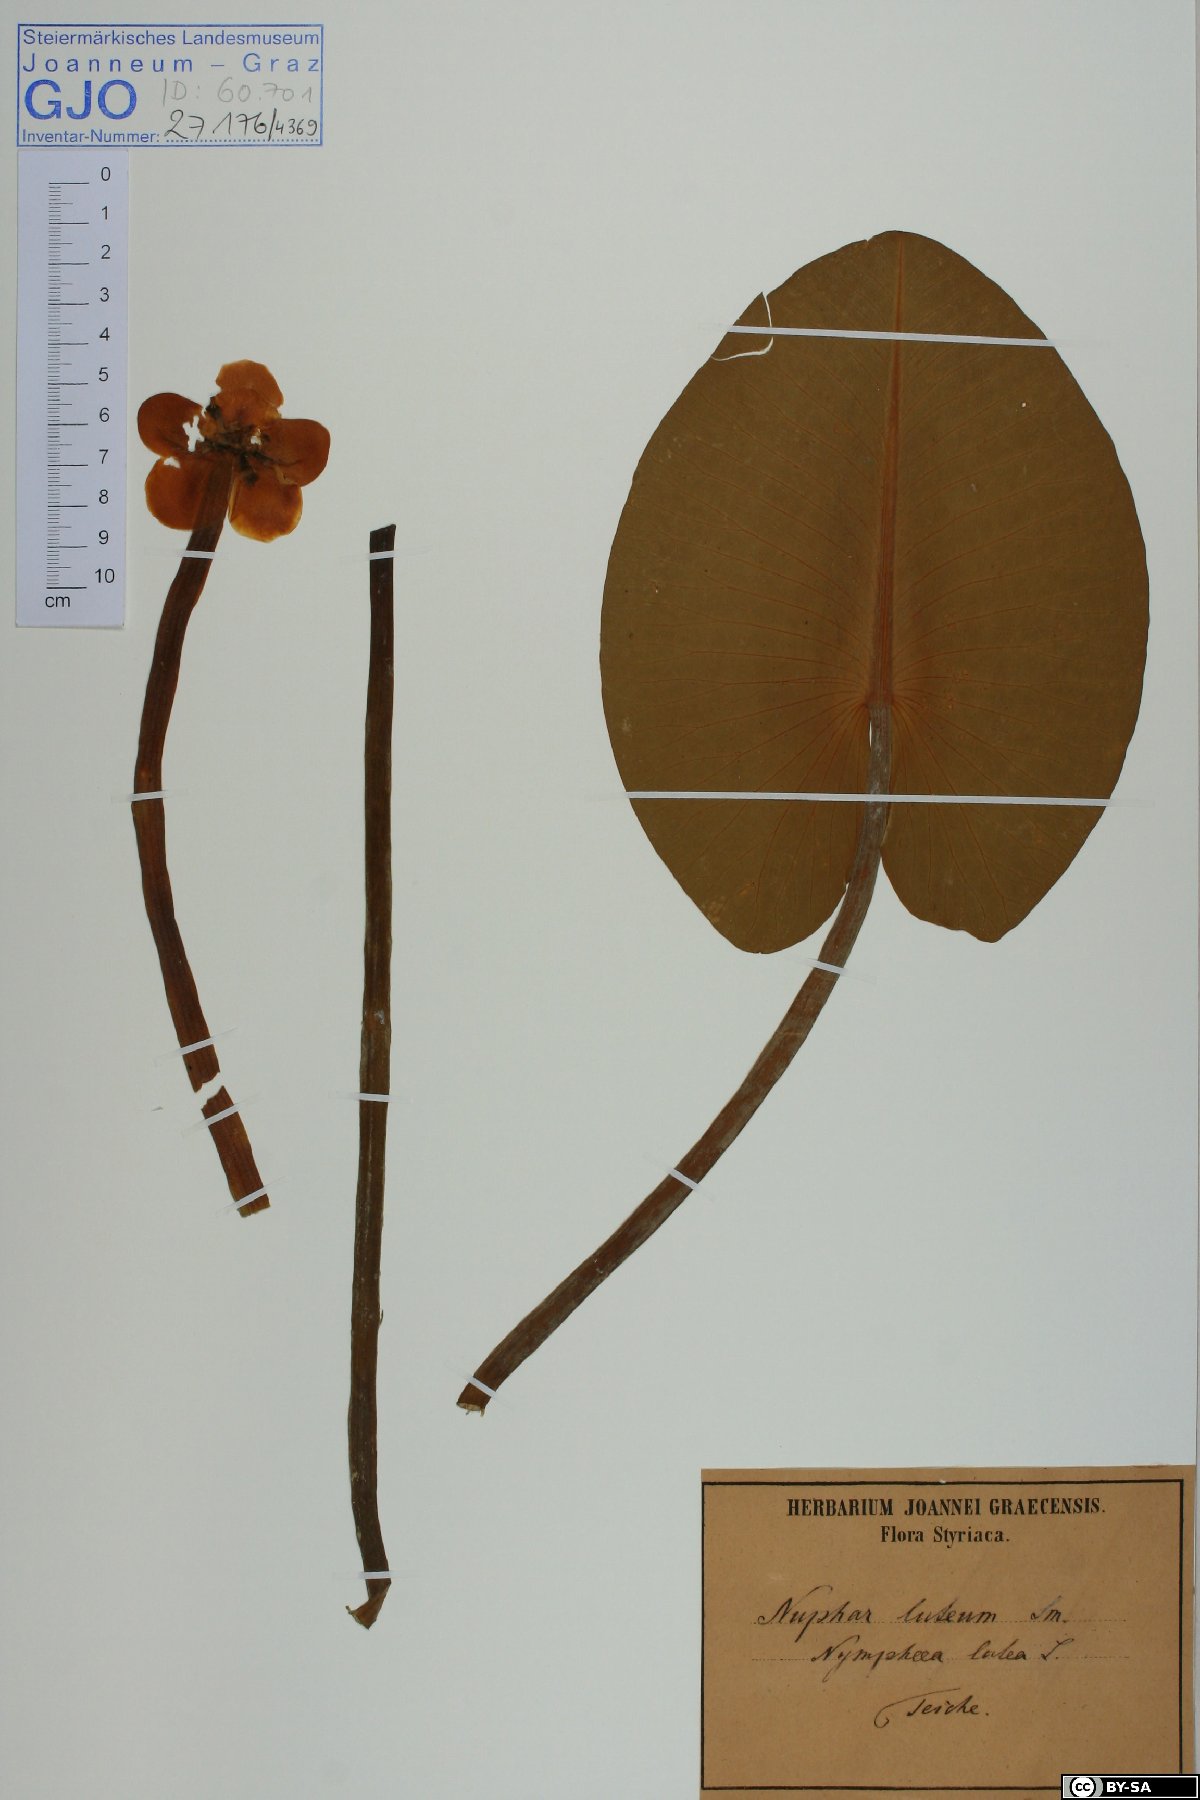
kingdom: Plantae
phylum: Tracheophyta
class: Magnoliopsida
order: Nymphaeales
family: Nymphaeaceae
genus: Nuphar
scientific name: Nuphar lutea
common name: Yellow water-lily
